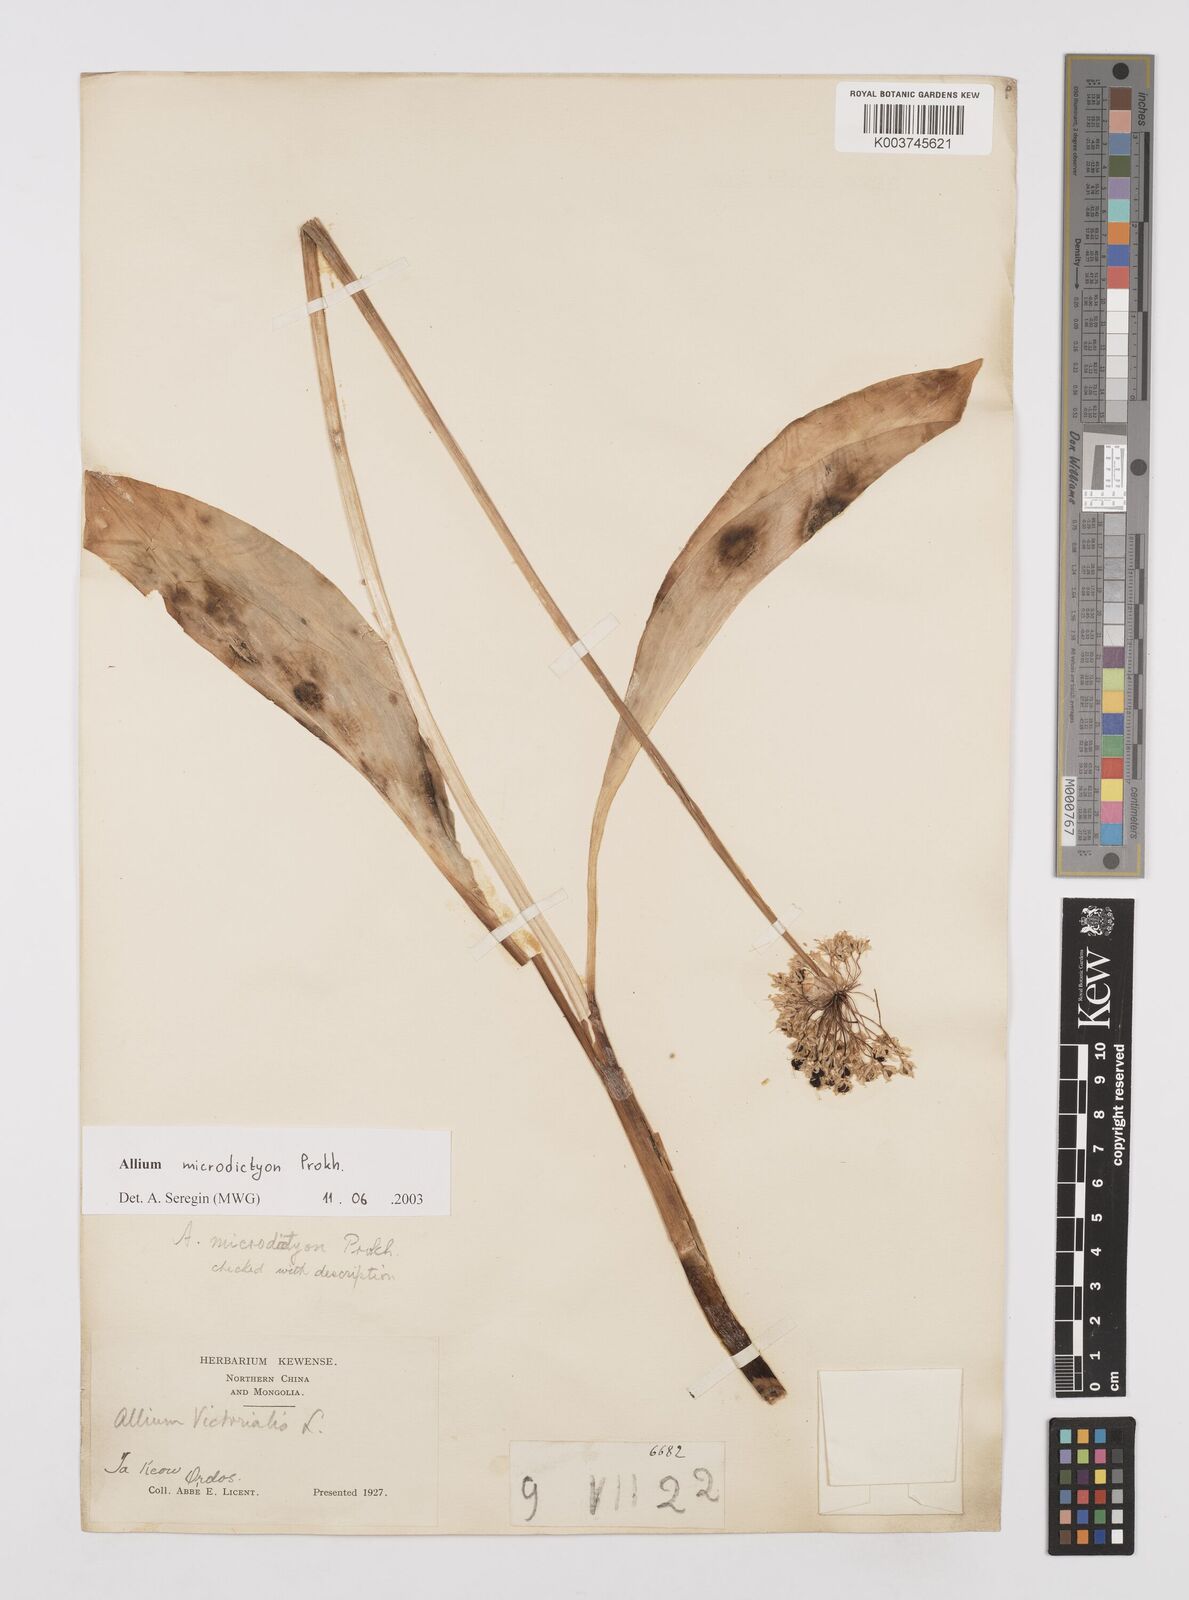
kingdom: Plantae
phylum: Tracheophyta
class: Liliopsida
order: Asparagales
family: Amaryllidaceae
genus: Allium
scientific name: Allium victorialis
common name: Alpine leek
